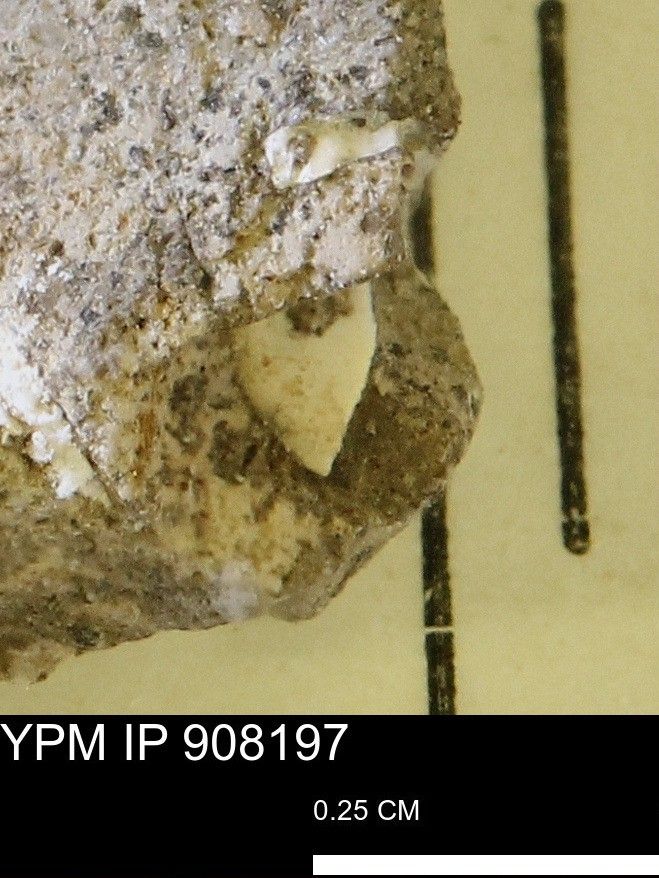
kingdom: Animalia
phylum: Mollusca
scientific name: Mollusca
